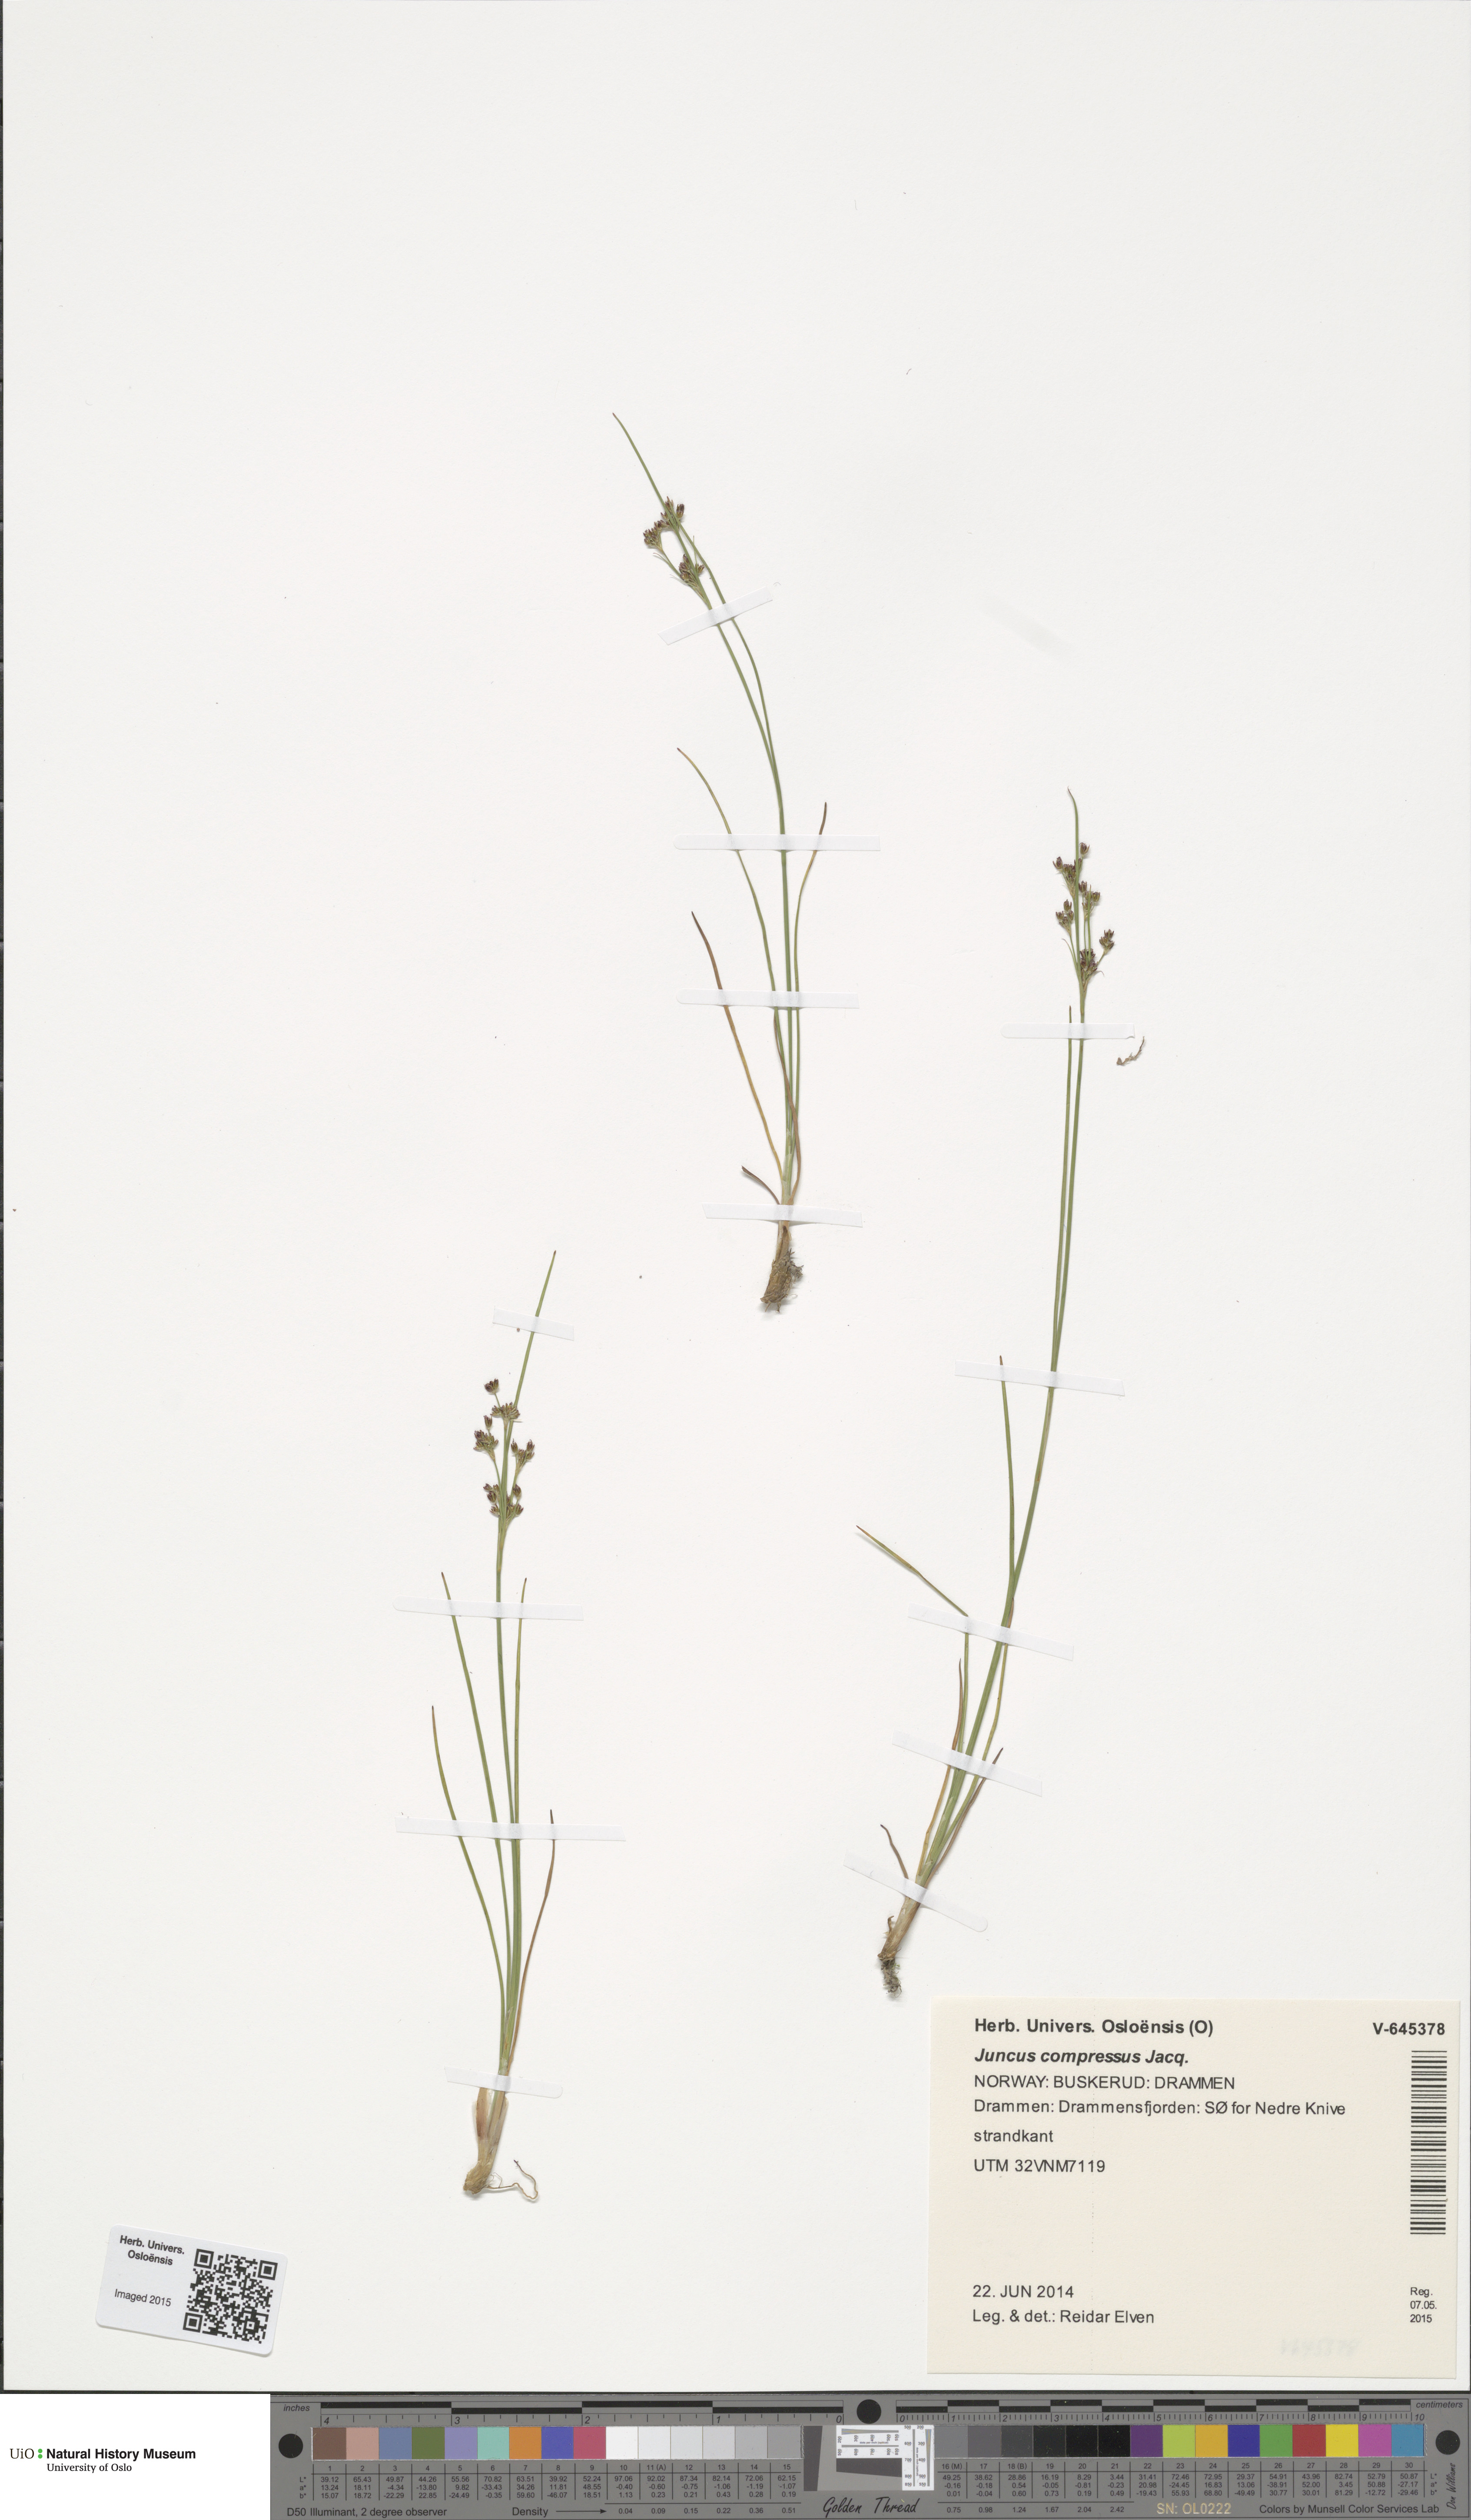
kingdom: Plantae
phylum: Tracheophyta
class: Liliopsida
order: Poales
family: Juncaceae
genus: Juncus
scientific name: Juncus compressus
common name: Round-fruited rush
